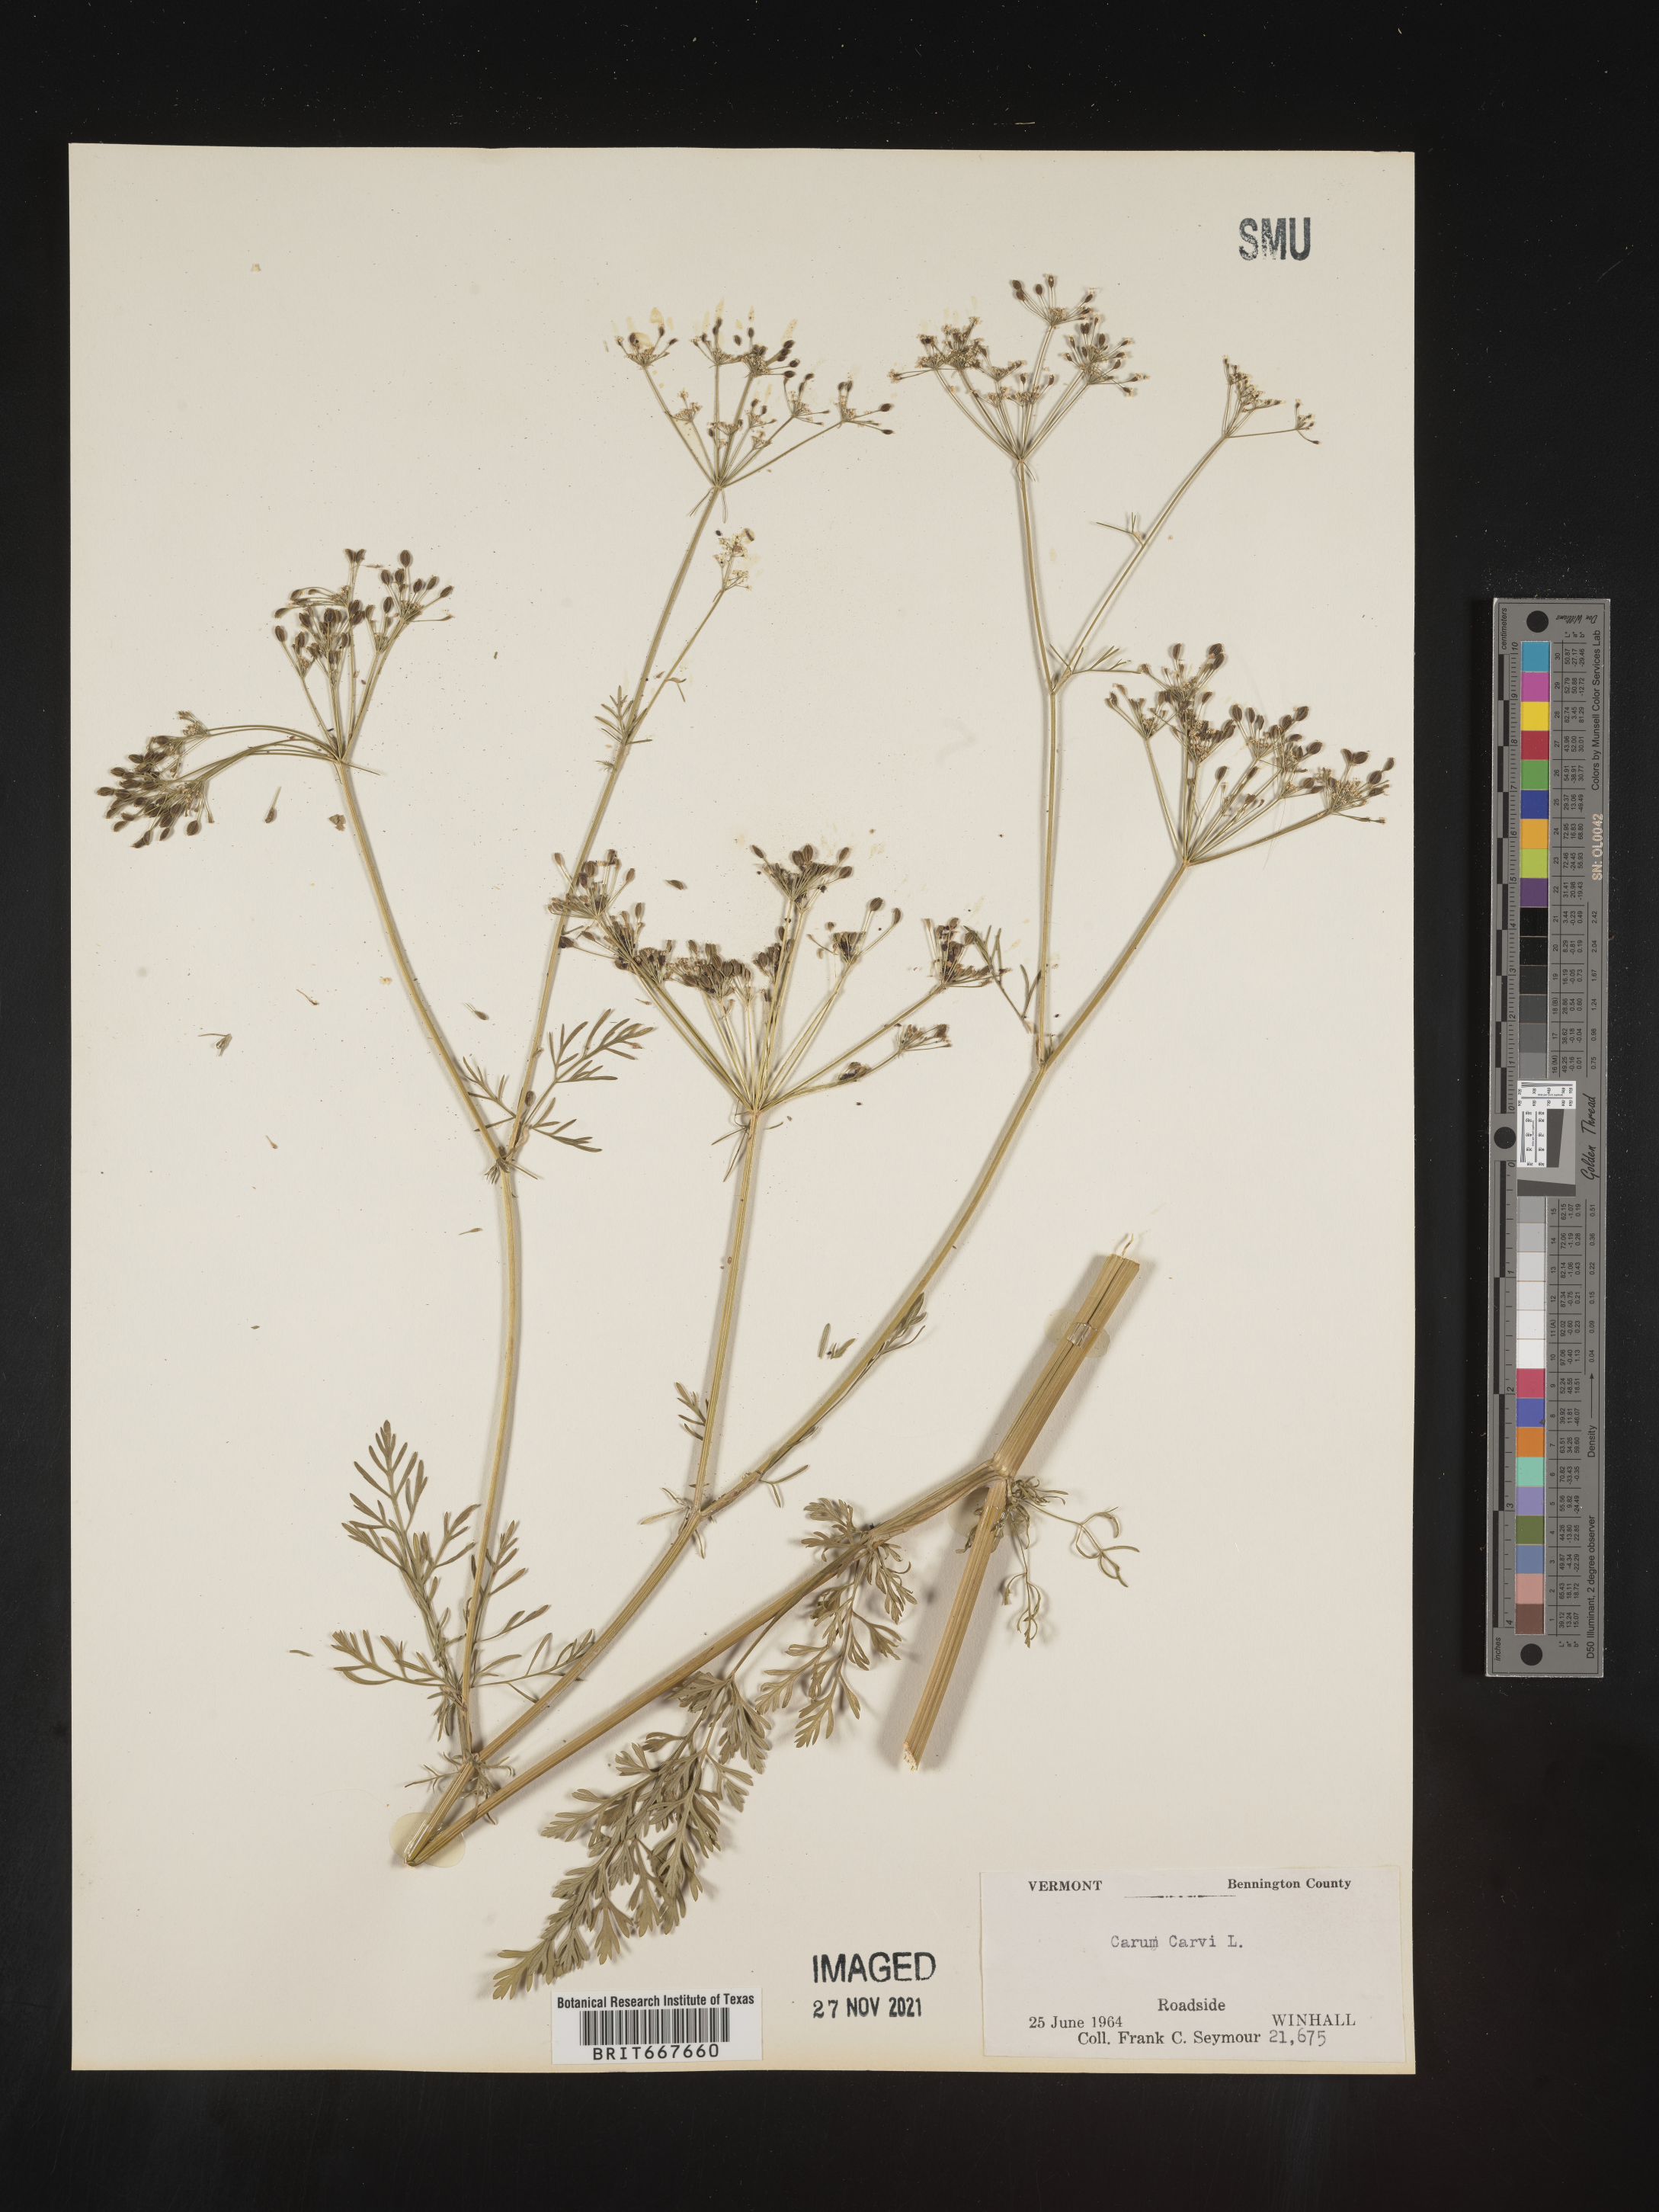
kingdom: Plantae
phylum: Tracheophyta
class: Magnoliopsida
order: Apiales
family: Apiaceae
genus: Carum
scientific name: Carum
